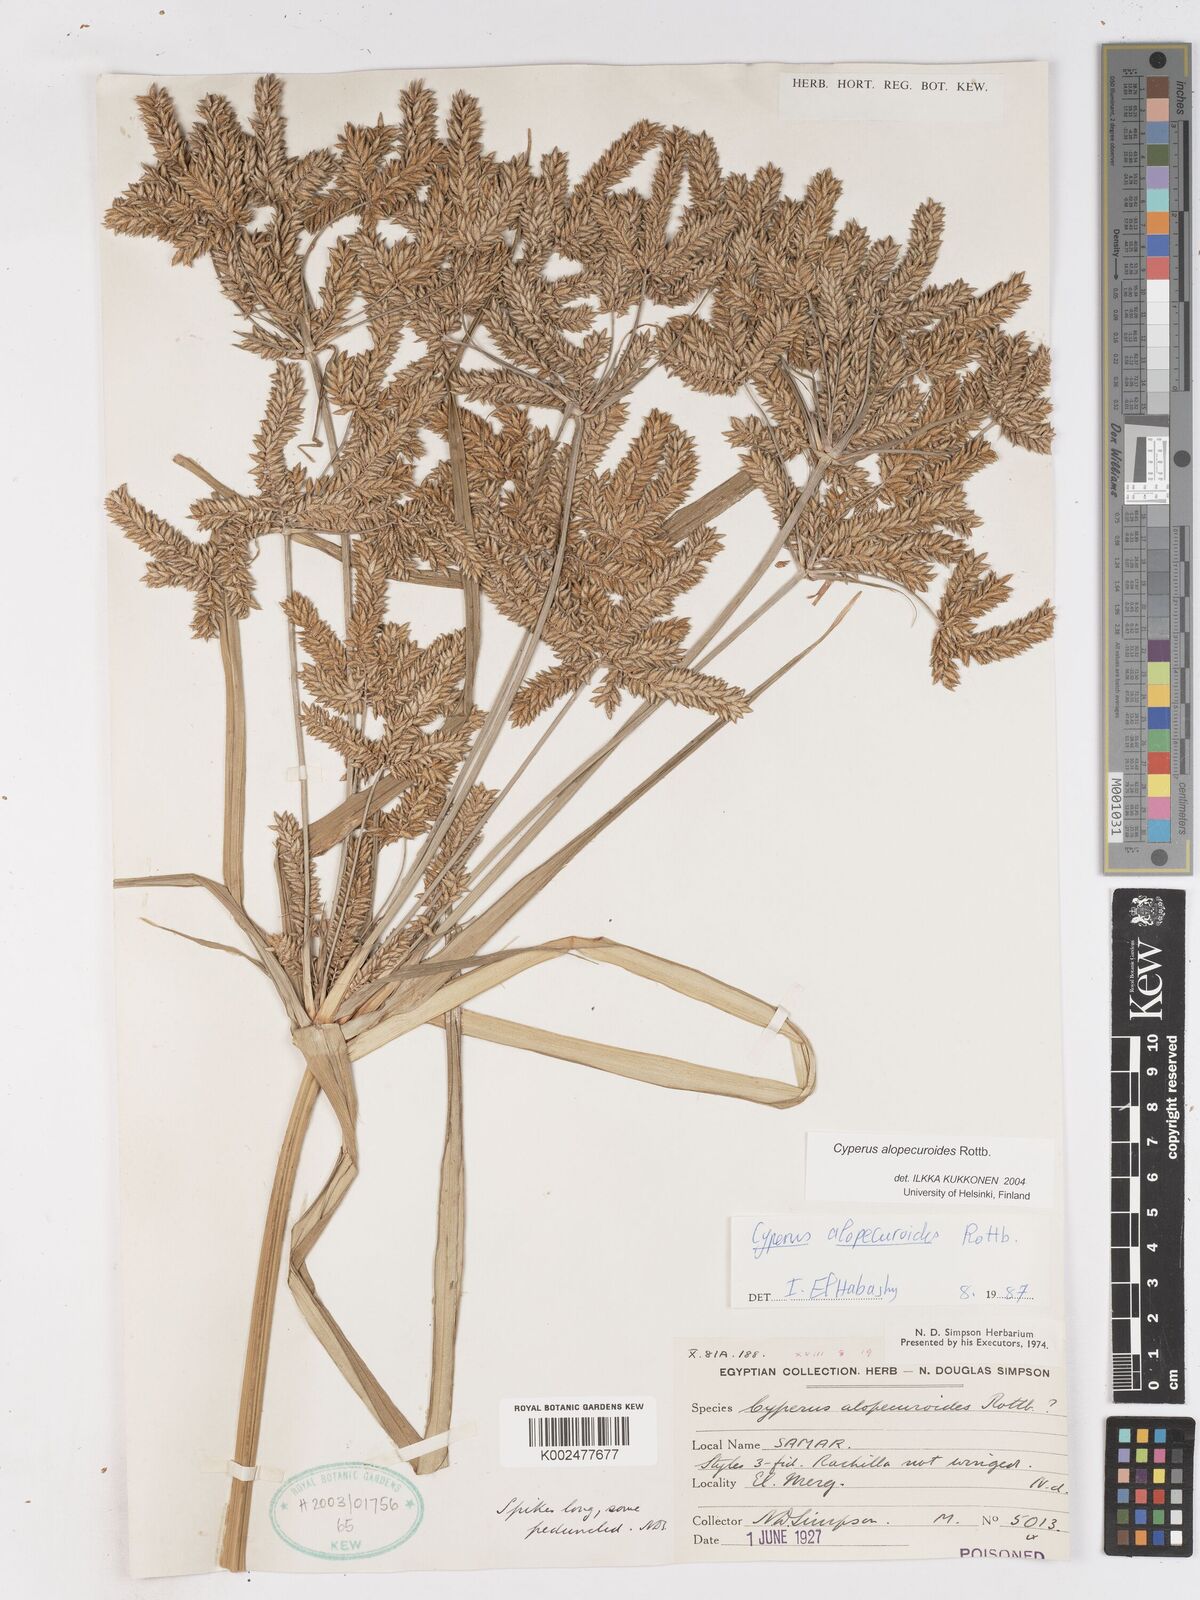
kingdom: Plantae
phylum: Tracheophyta
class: Liliopsida
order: Poales
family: Cyperaceae
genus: Cyperus
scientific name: Cyperus alopecuroides
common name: Foxtail flatsedge
